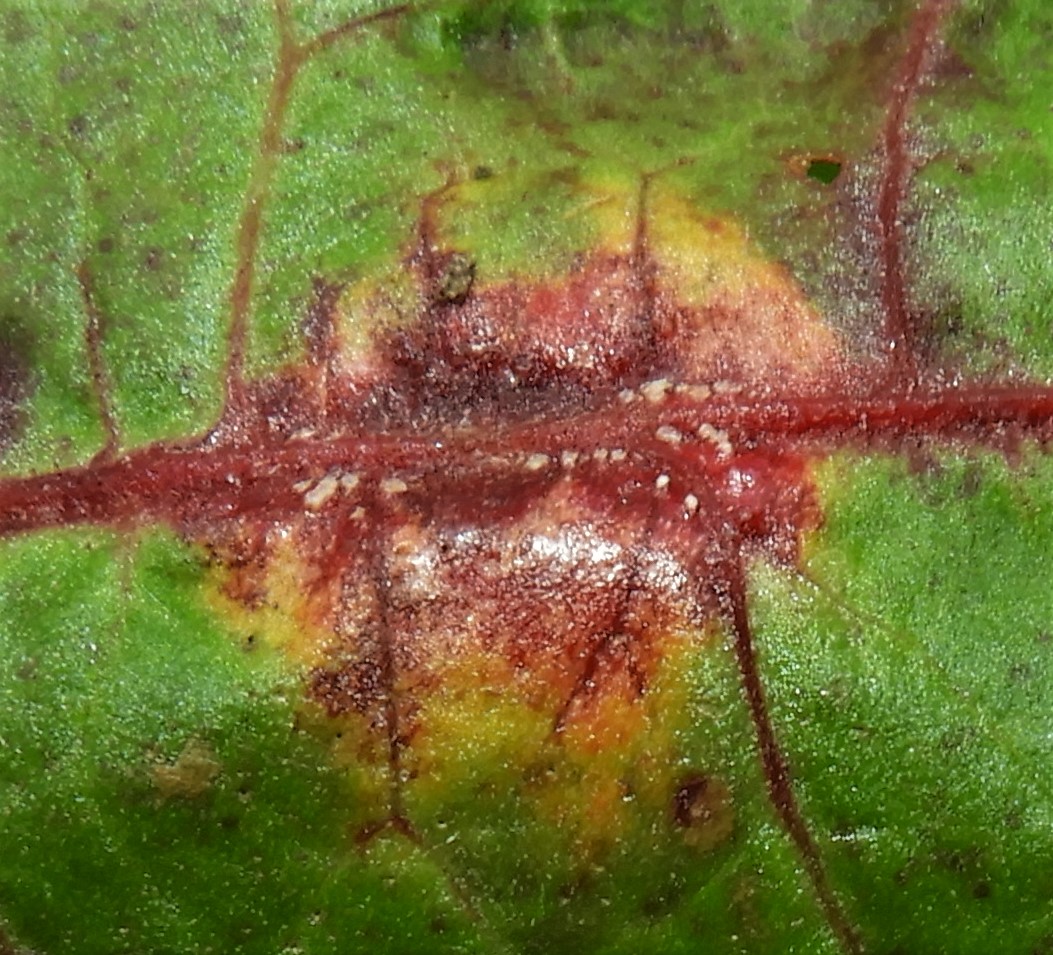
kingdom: Fungi
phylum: Basidiomycota
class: Pucciniomycetes
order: Pucciniales
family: Pucciniaceae
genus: Puccinia
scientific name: Puccinia phragmitis
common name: tagrør-tvecellerust
